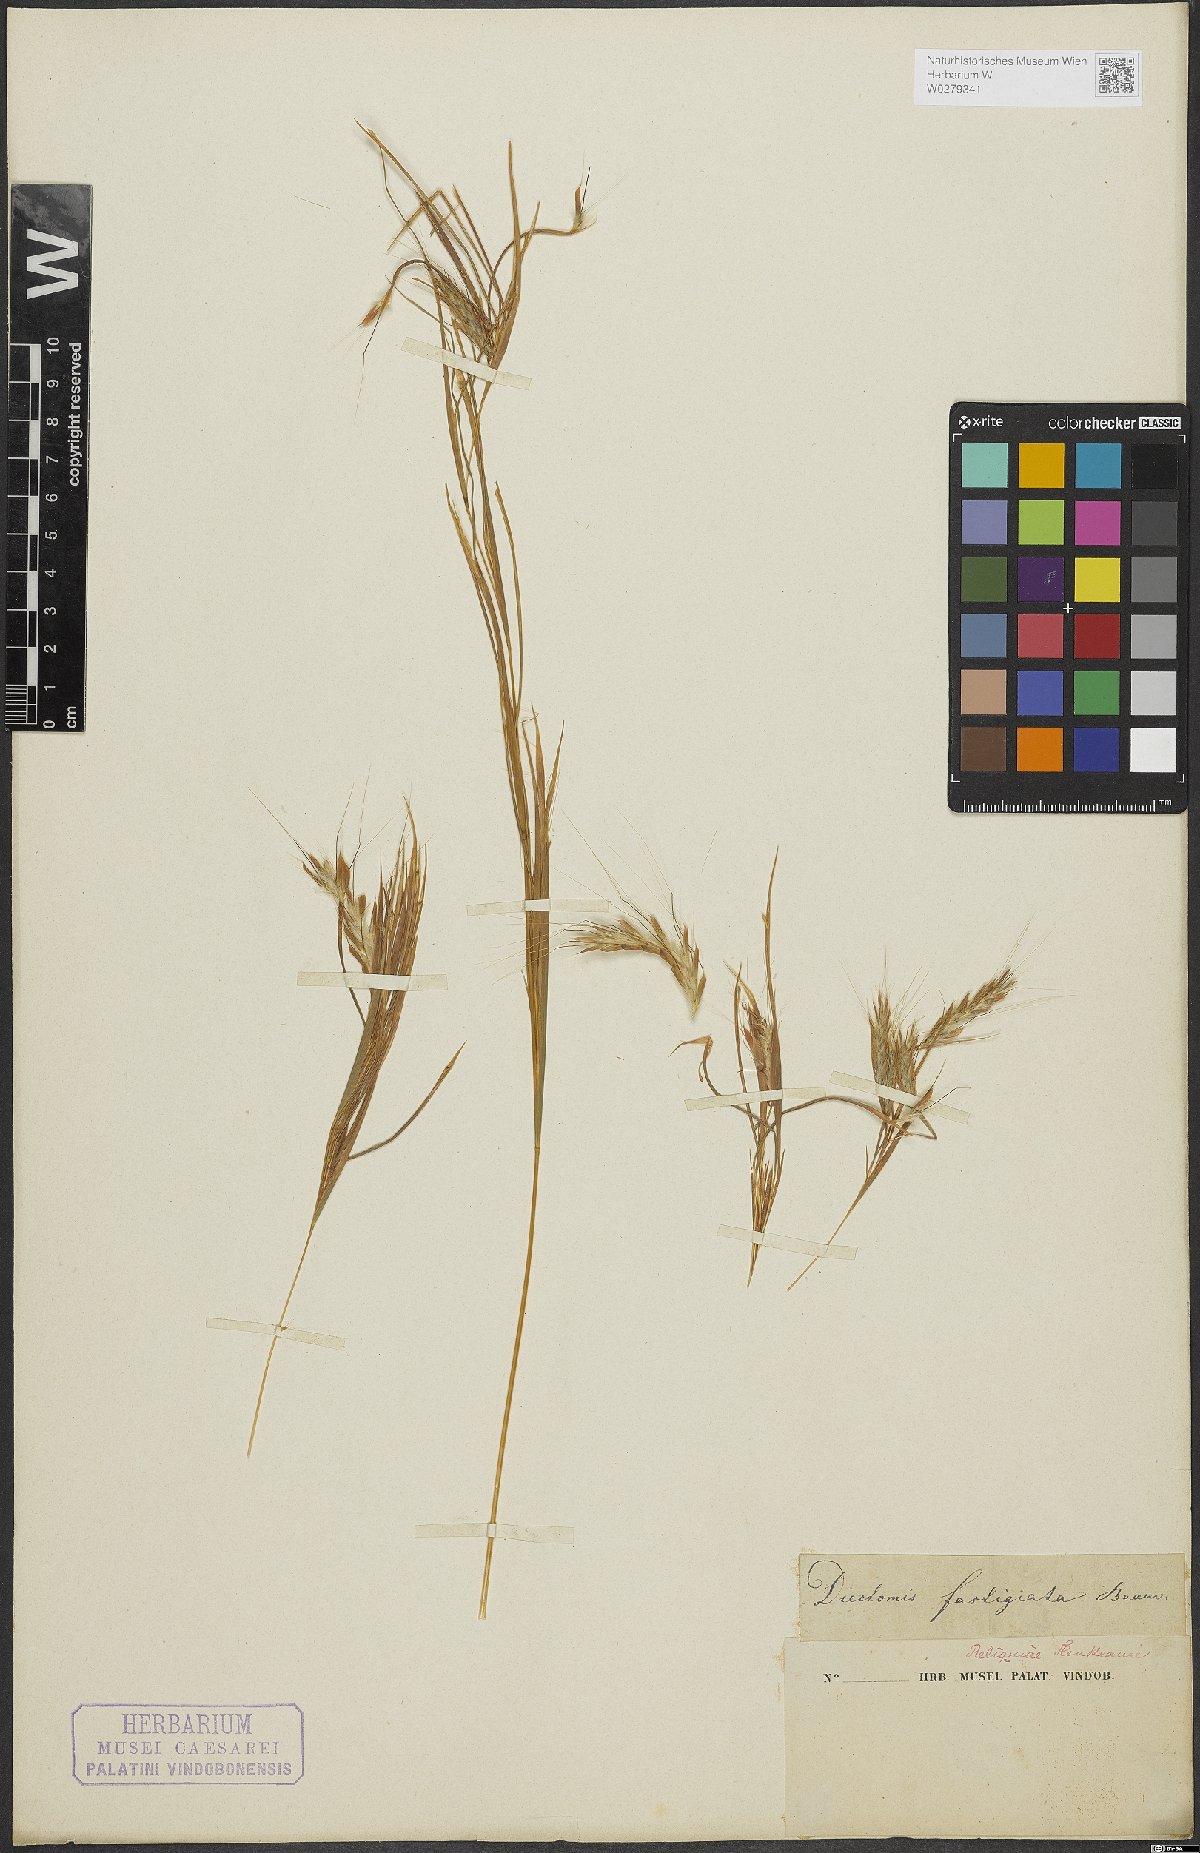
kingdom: Plantae
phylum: Tracheophyta
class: Liliopsida
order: Poales
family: Poaceae
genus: Diectomis
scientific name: Diectomis fastigiata
